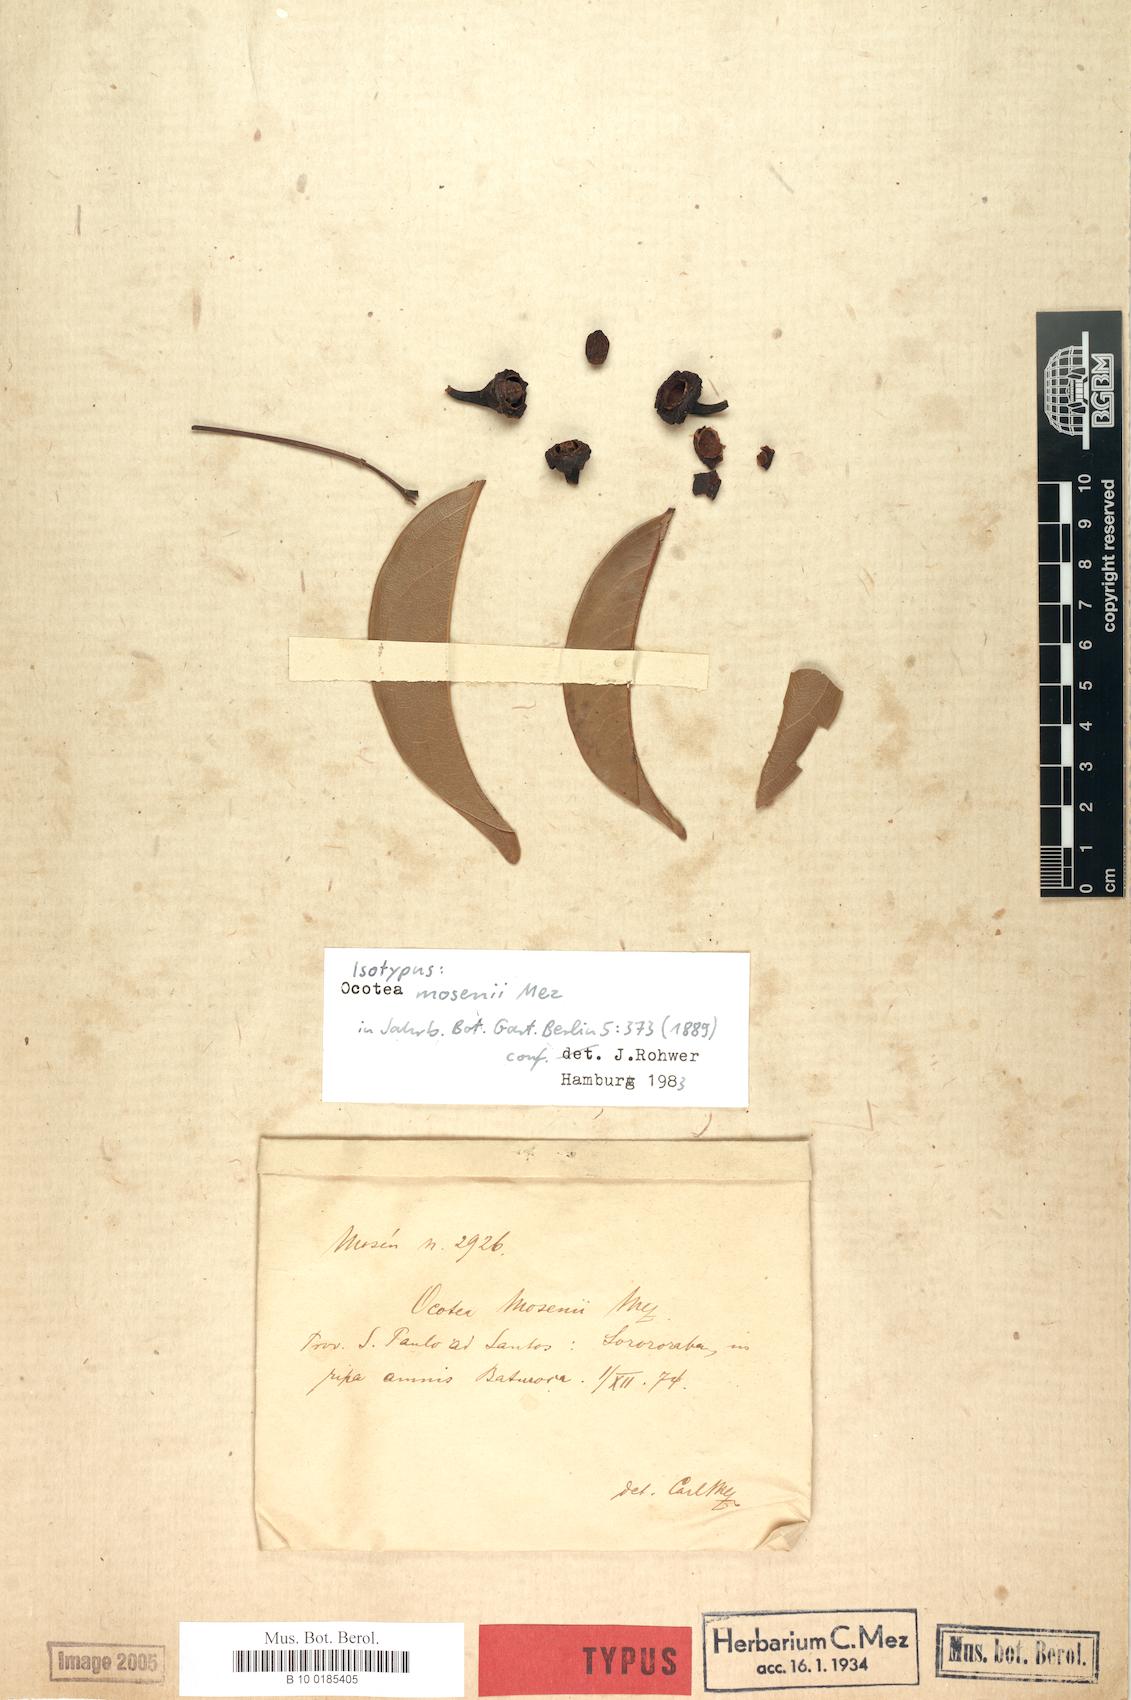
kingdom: Plantae
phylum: Tracheophyta
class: Magnoliopsida
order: Laurales
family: Lauraceae
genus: Ocotea
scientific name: Ocotea mosenii
